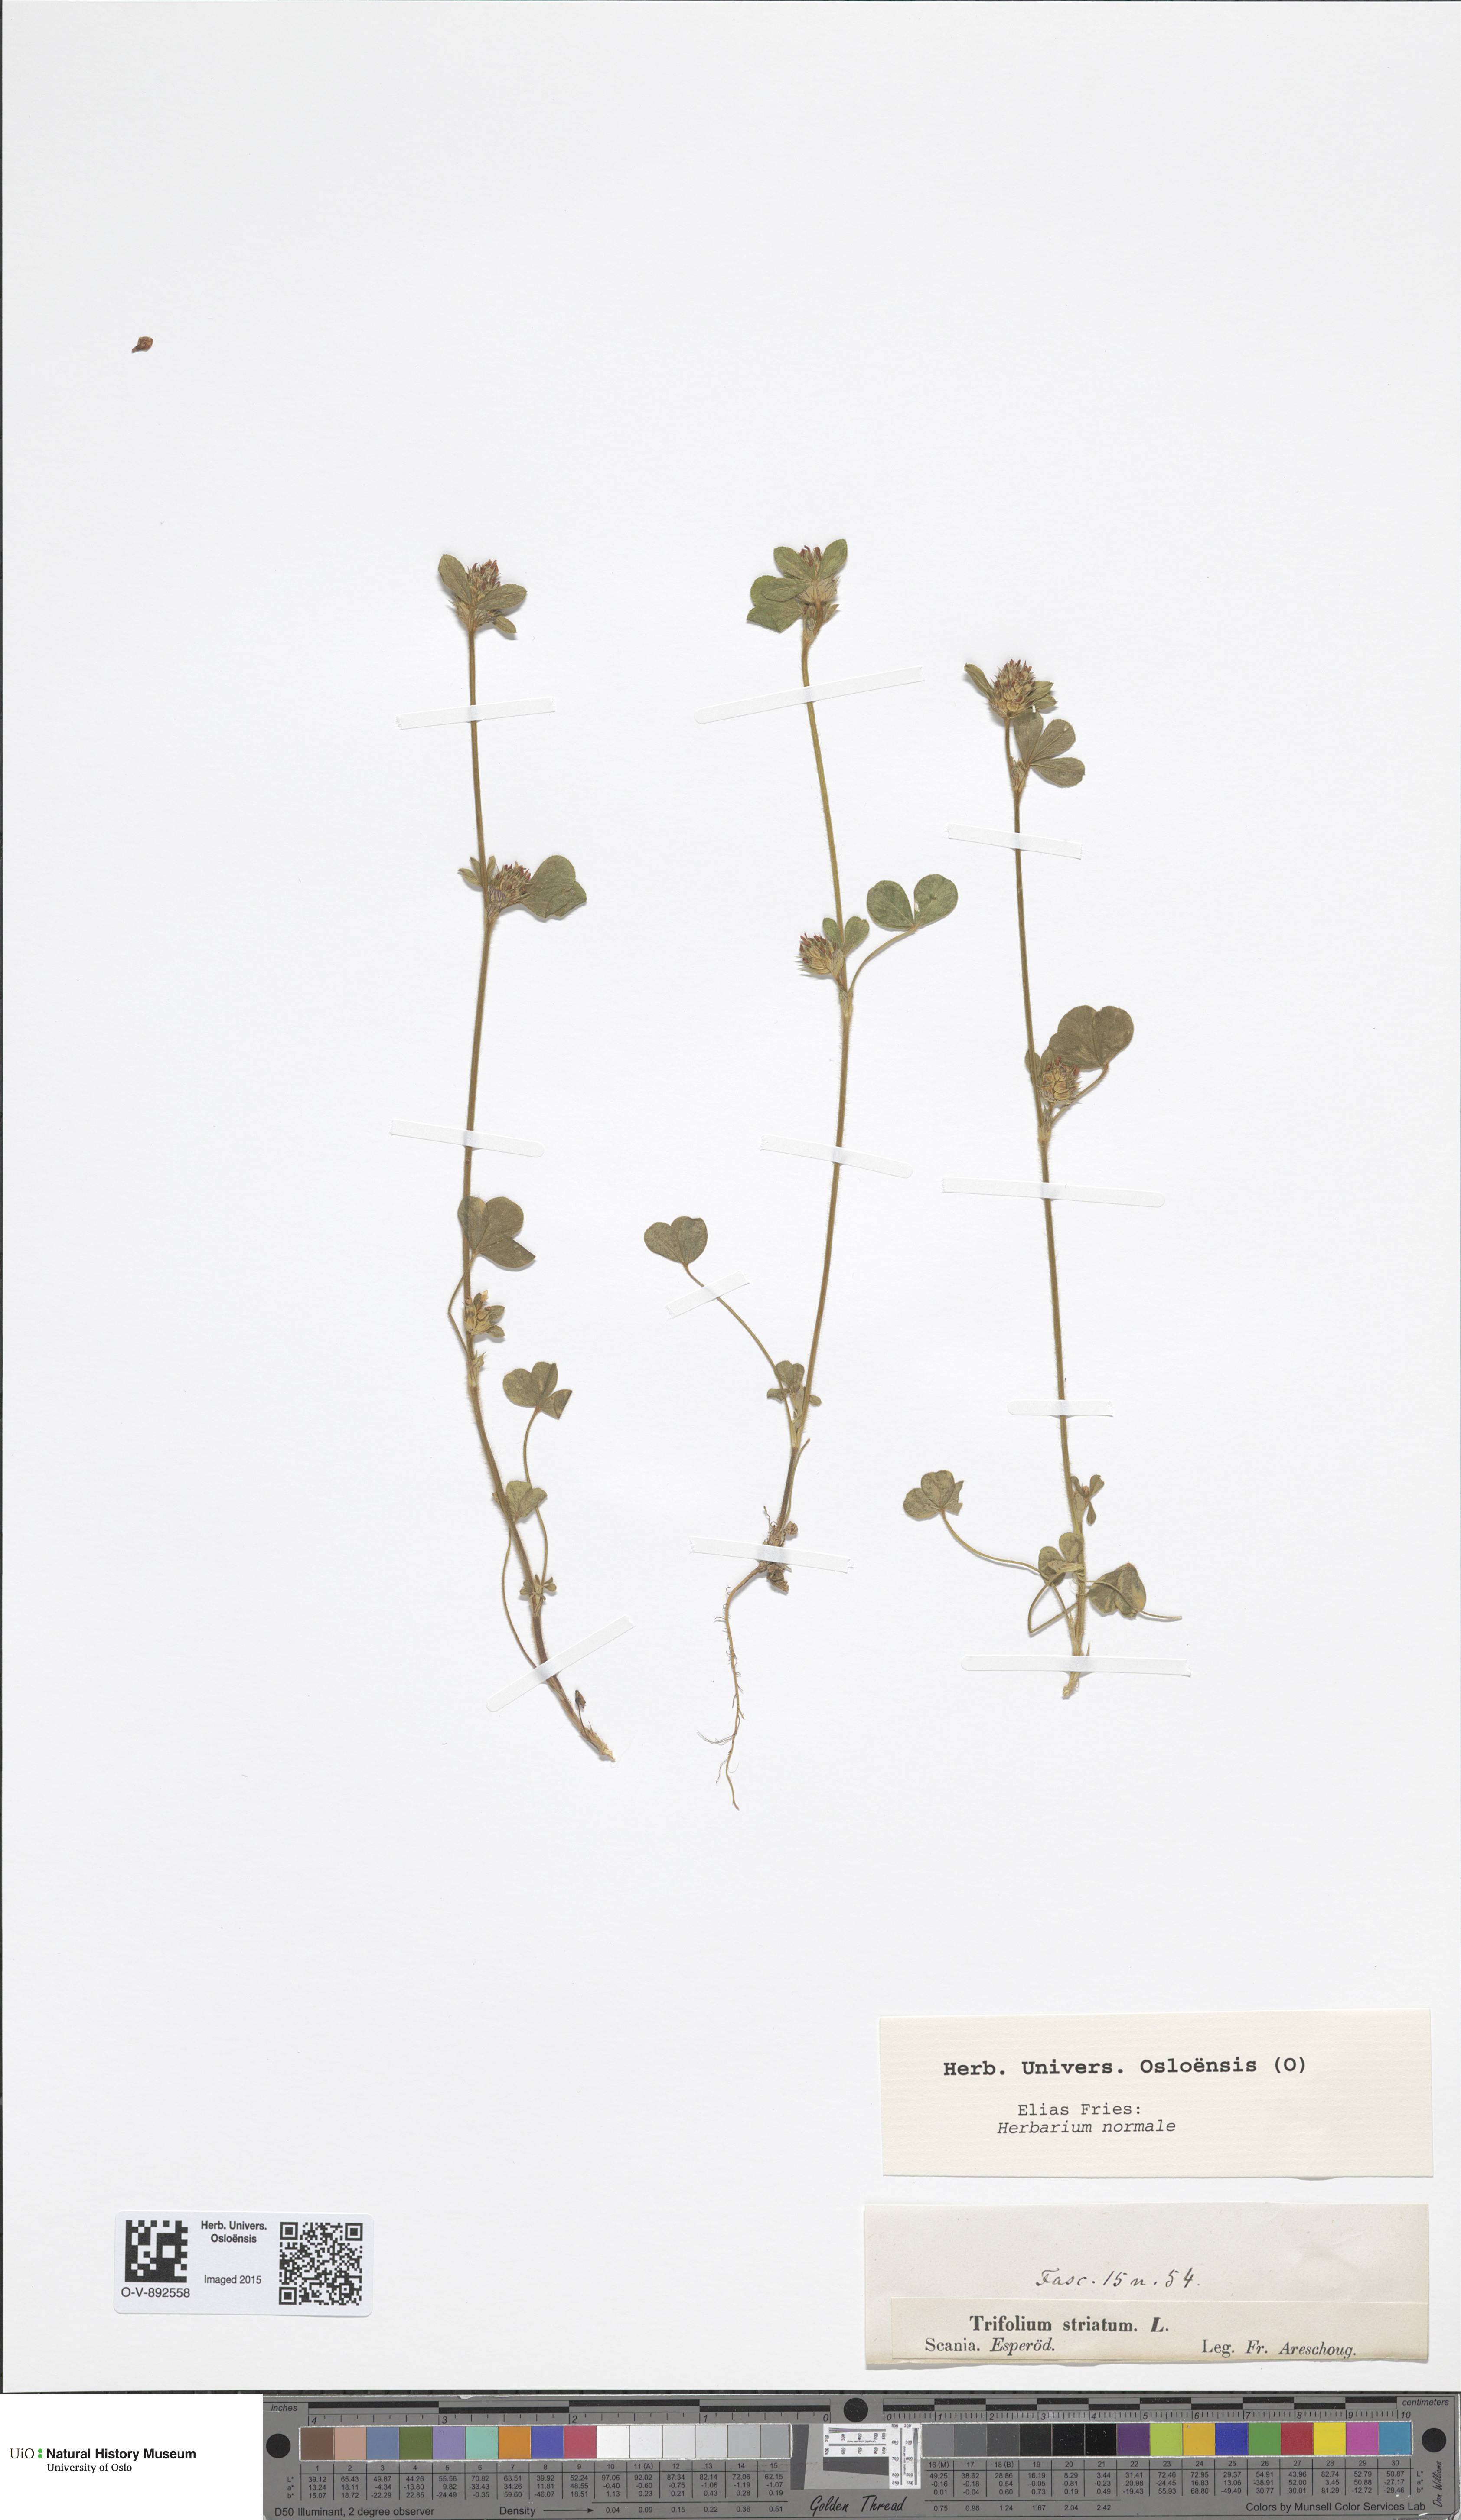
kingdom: Plantae
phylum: Tracheophyta
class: Magnoliopsida
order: Fabales
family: Fabaceae
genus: Trifolium
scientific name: Trifolium striatum
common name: Knotted clover
